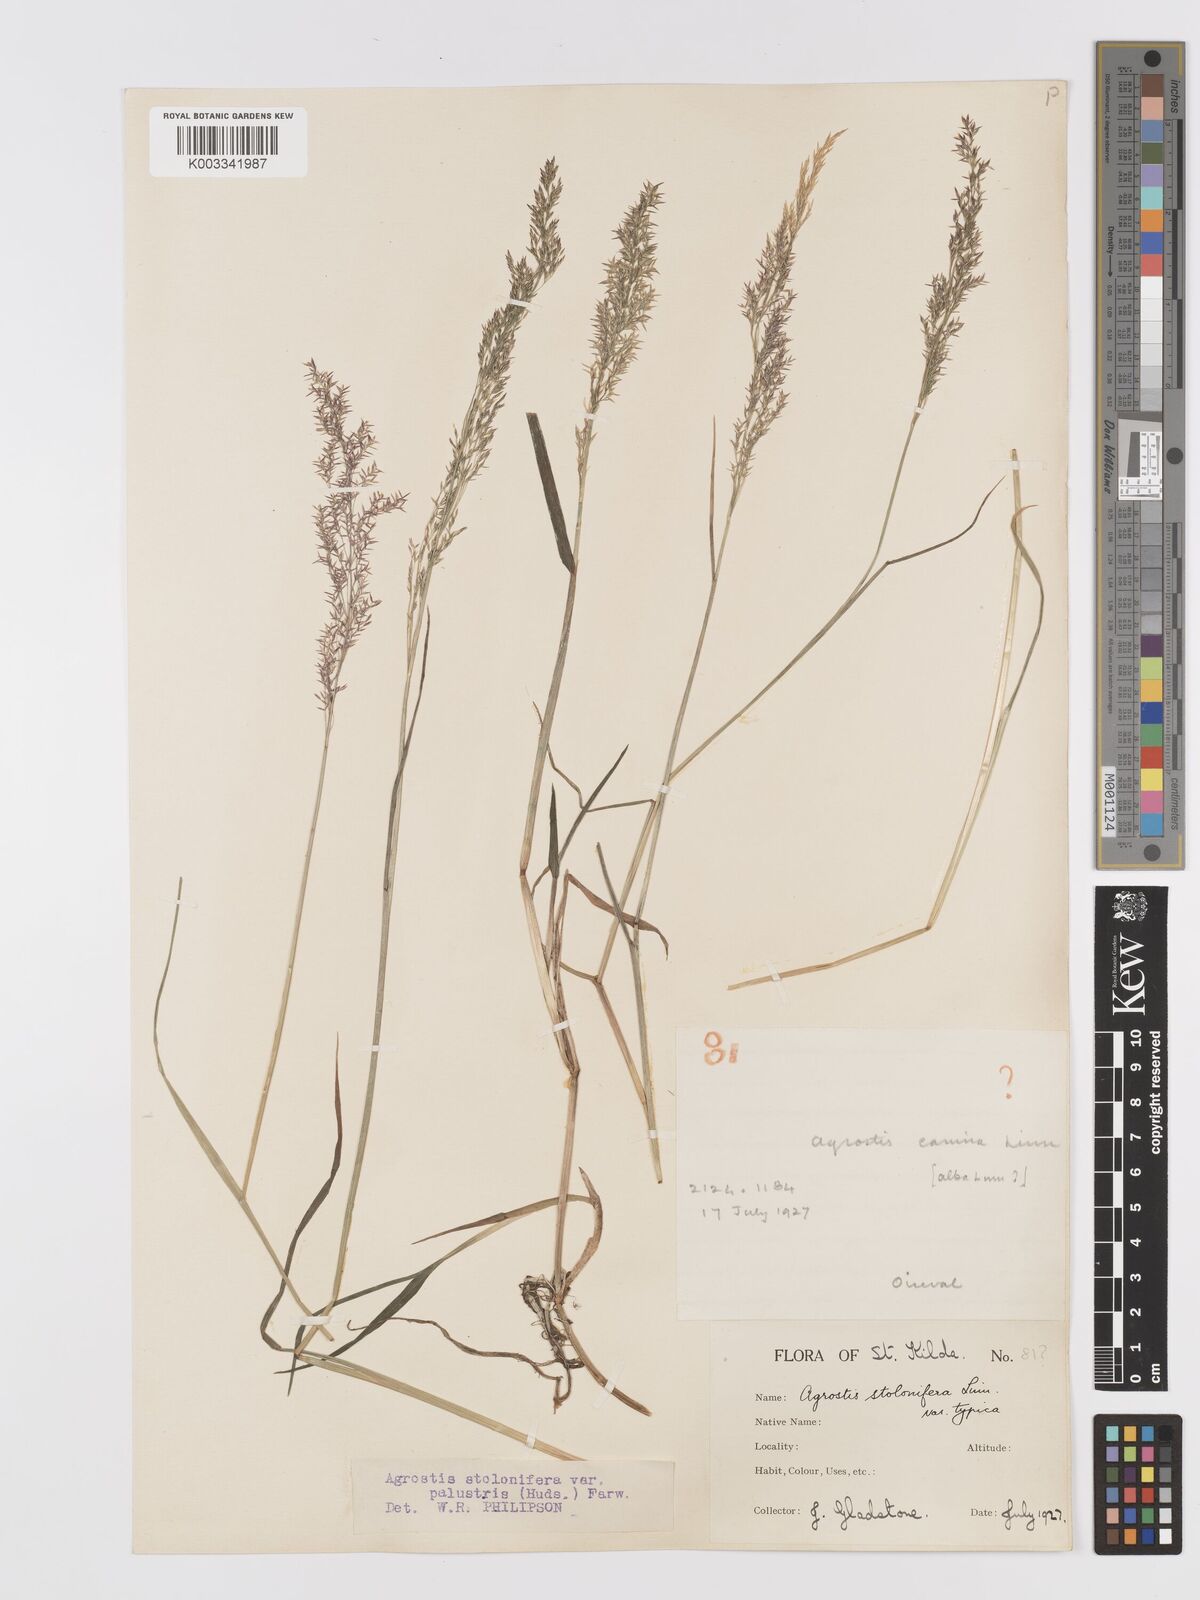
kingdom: Plantae
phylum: Tracheophyta
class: Liliopsida
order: Poales
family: Poaceae
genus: Agrostis
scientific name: Agrostis stolonifera
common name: Creeping bentgrass
